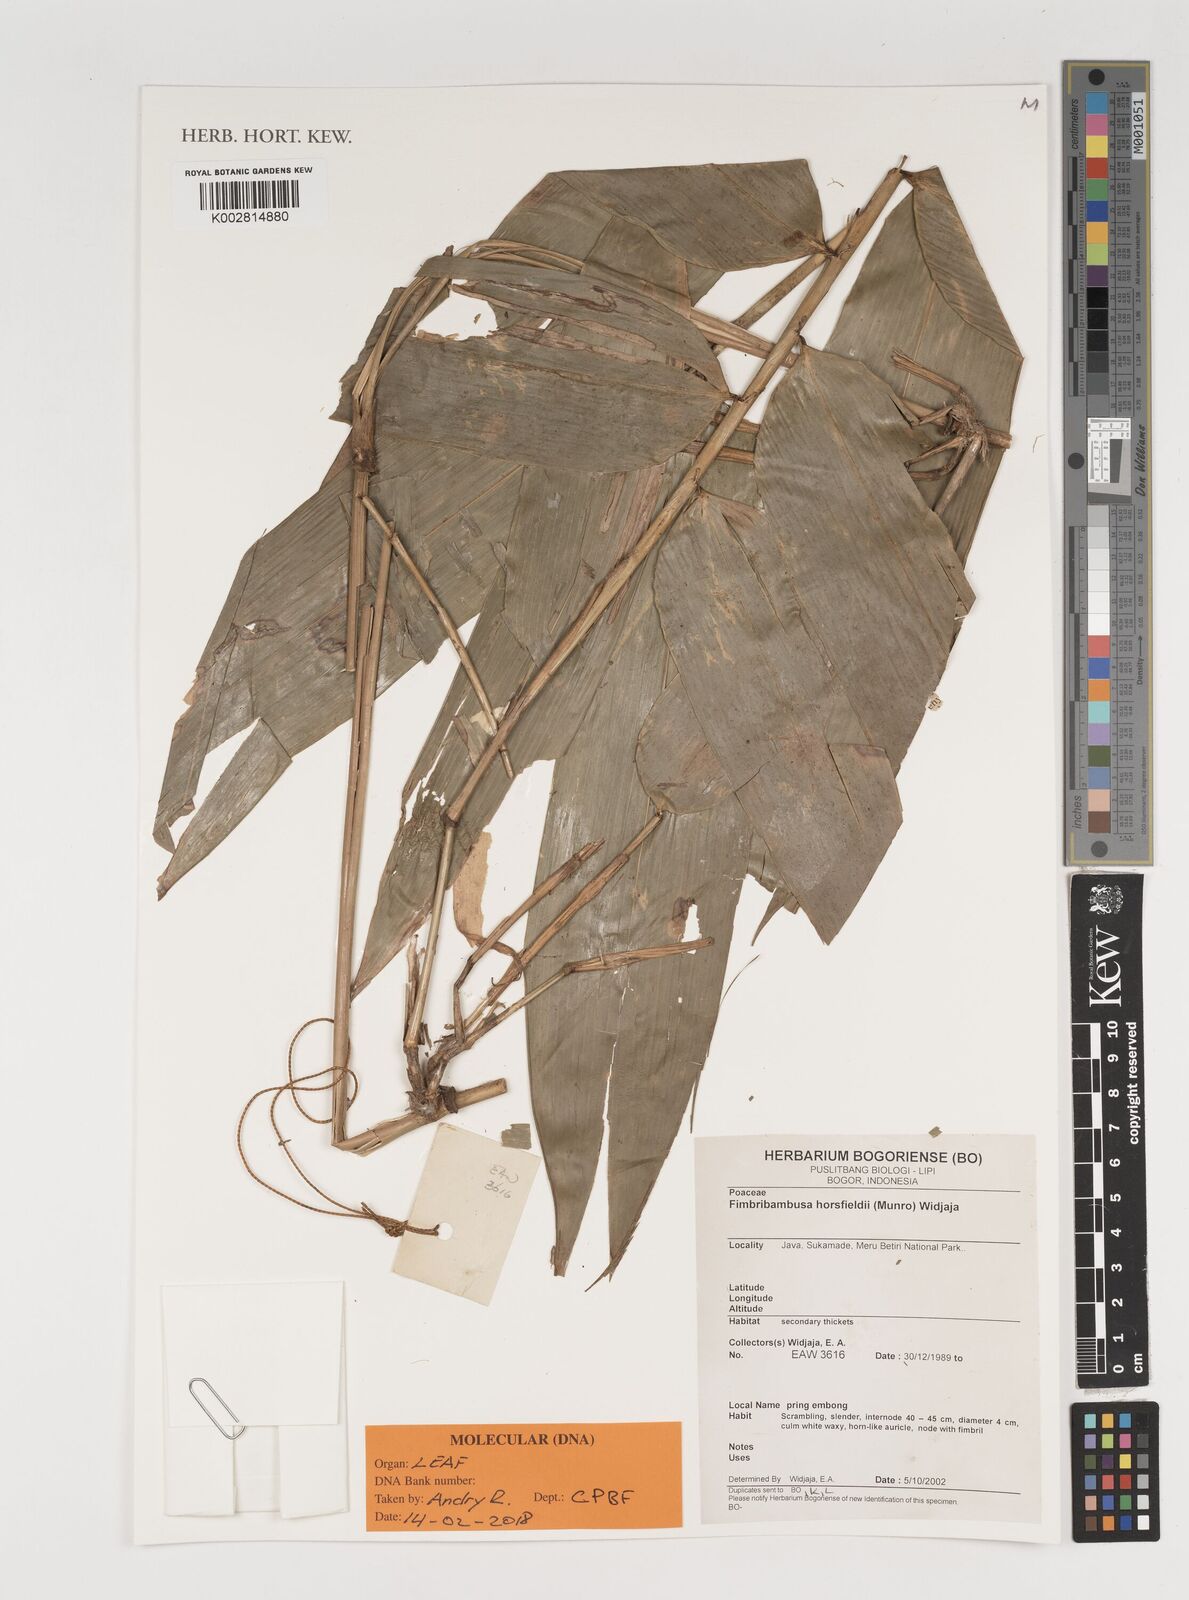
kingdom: Plantae
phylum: Tracheophyta
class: Liliopsida
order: Poales
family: Poaceae
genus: Fimbribambusa
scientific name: Fimbribambusa horsfieldii
